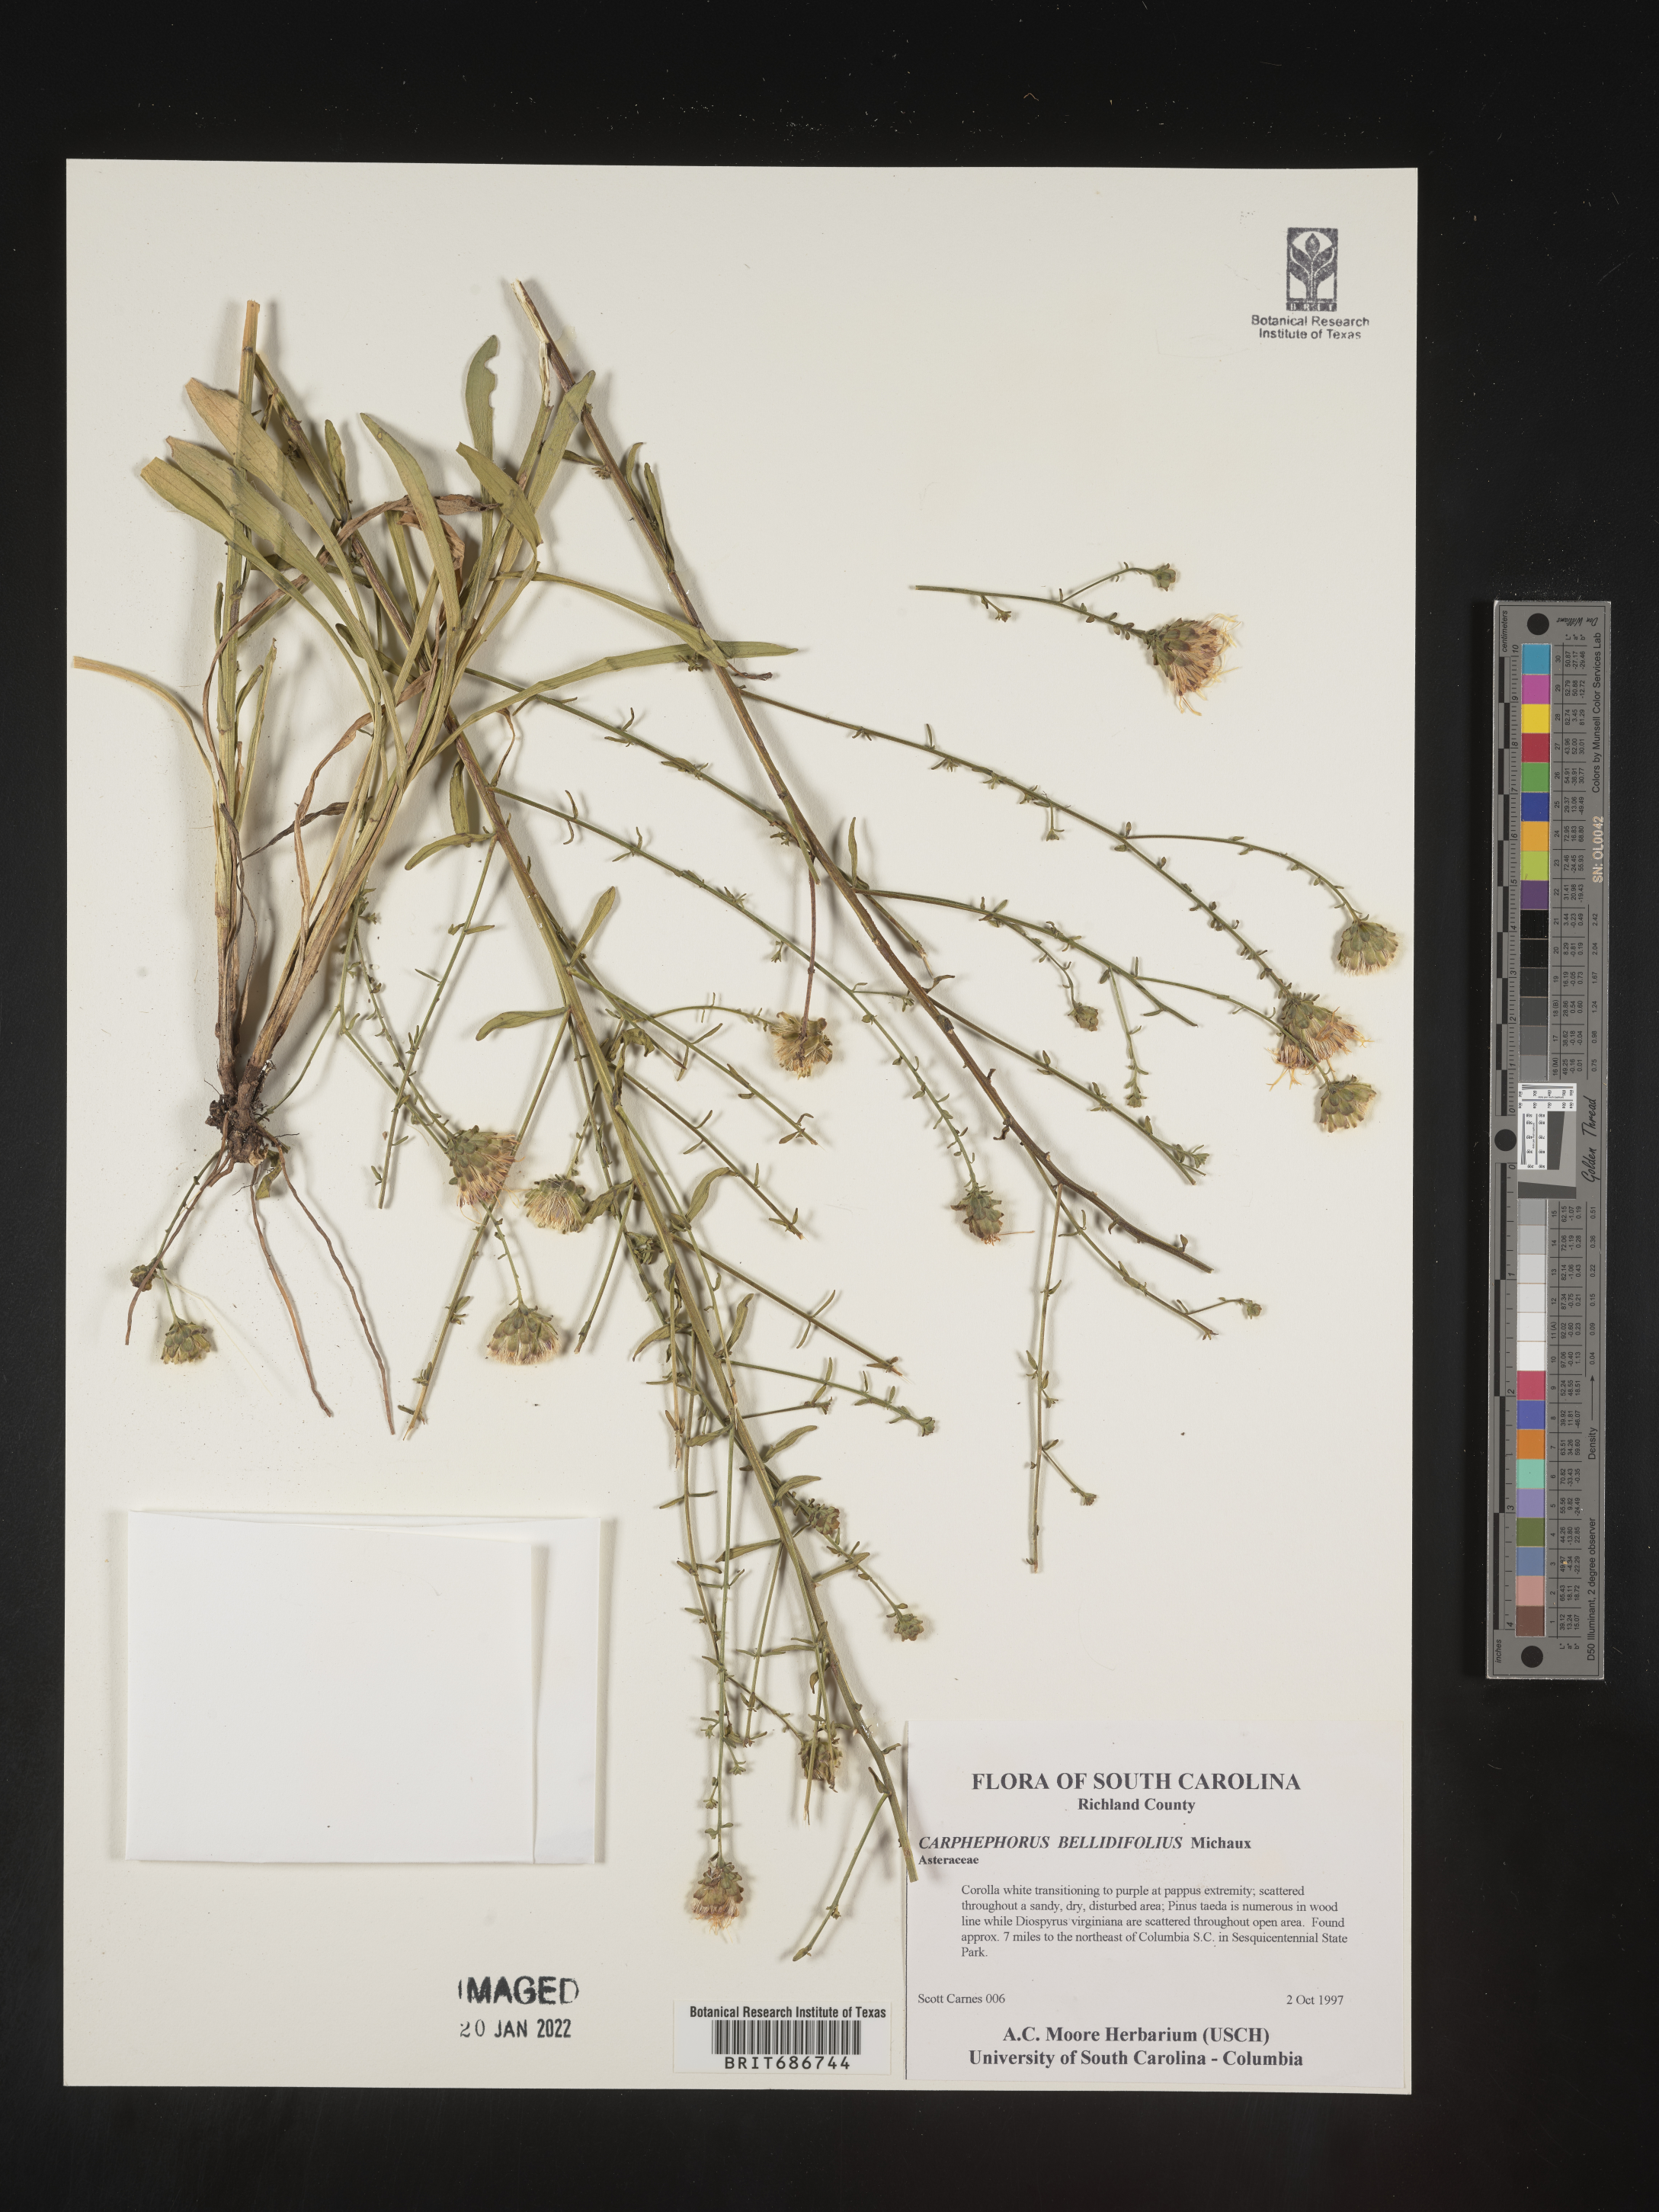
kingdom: Plantae
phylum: Tracheophyta
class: Magnoliopsida
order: Asterales
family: Asteraceae
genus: Carphephorus
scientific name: Carphephorus bellidifolius
